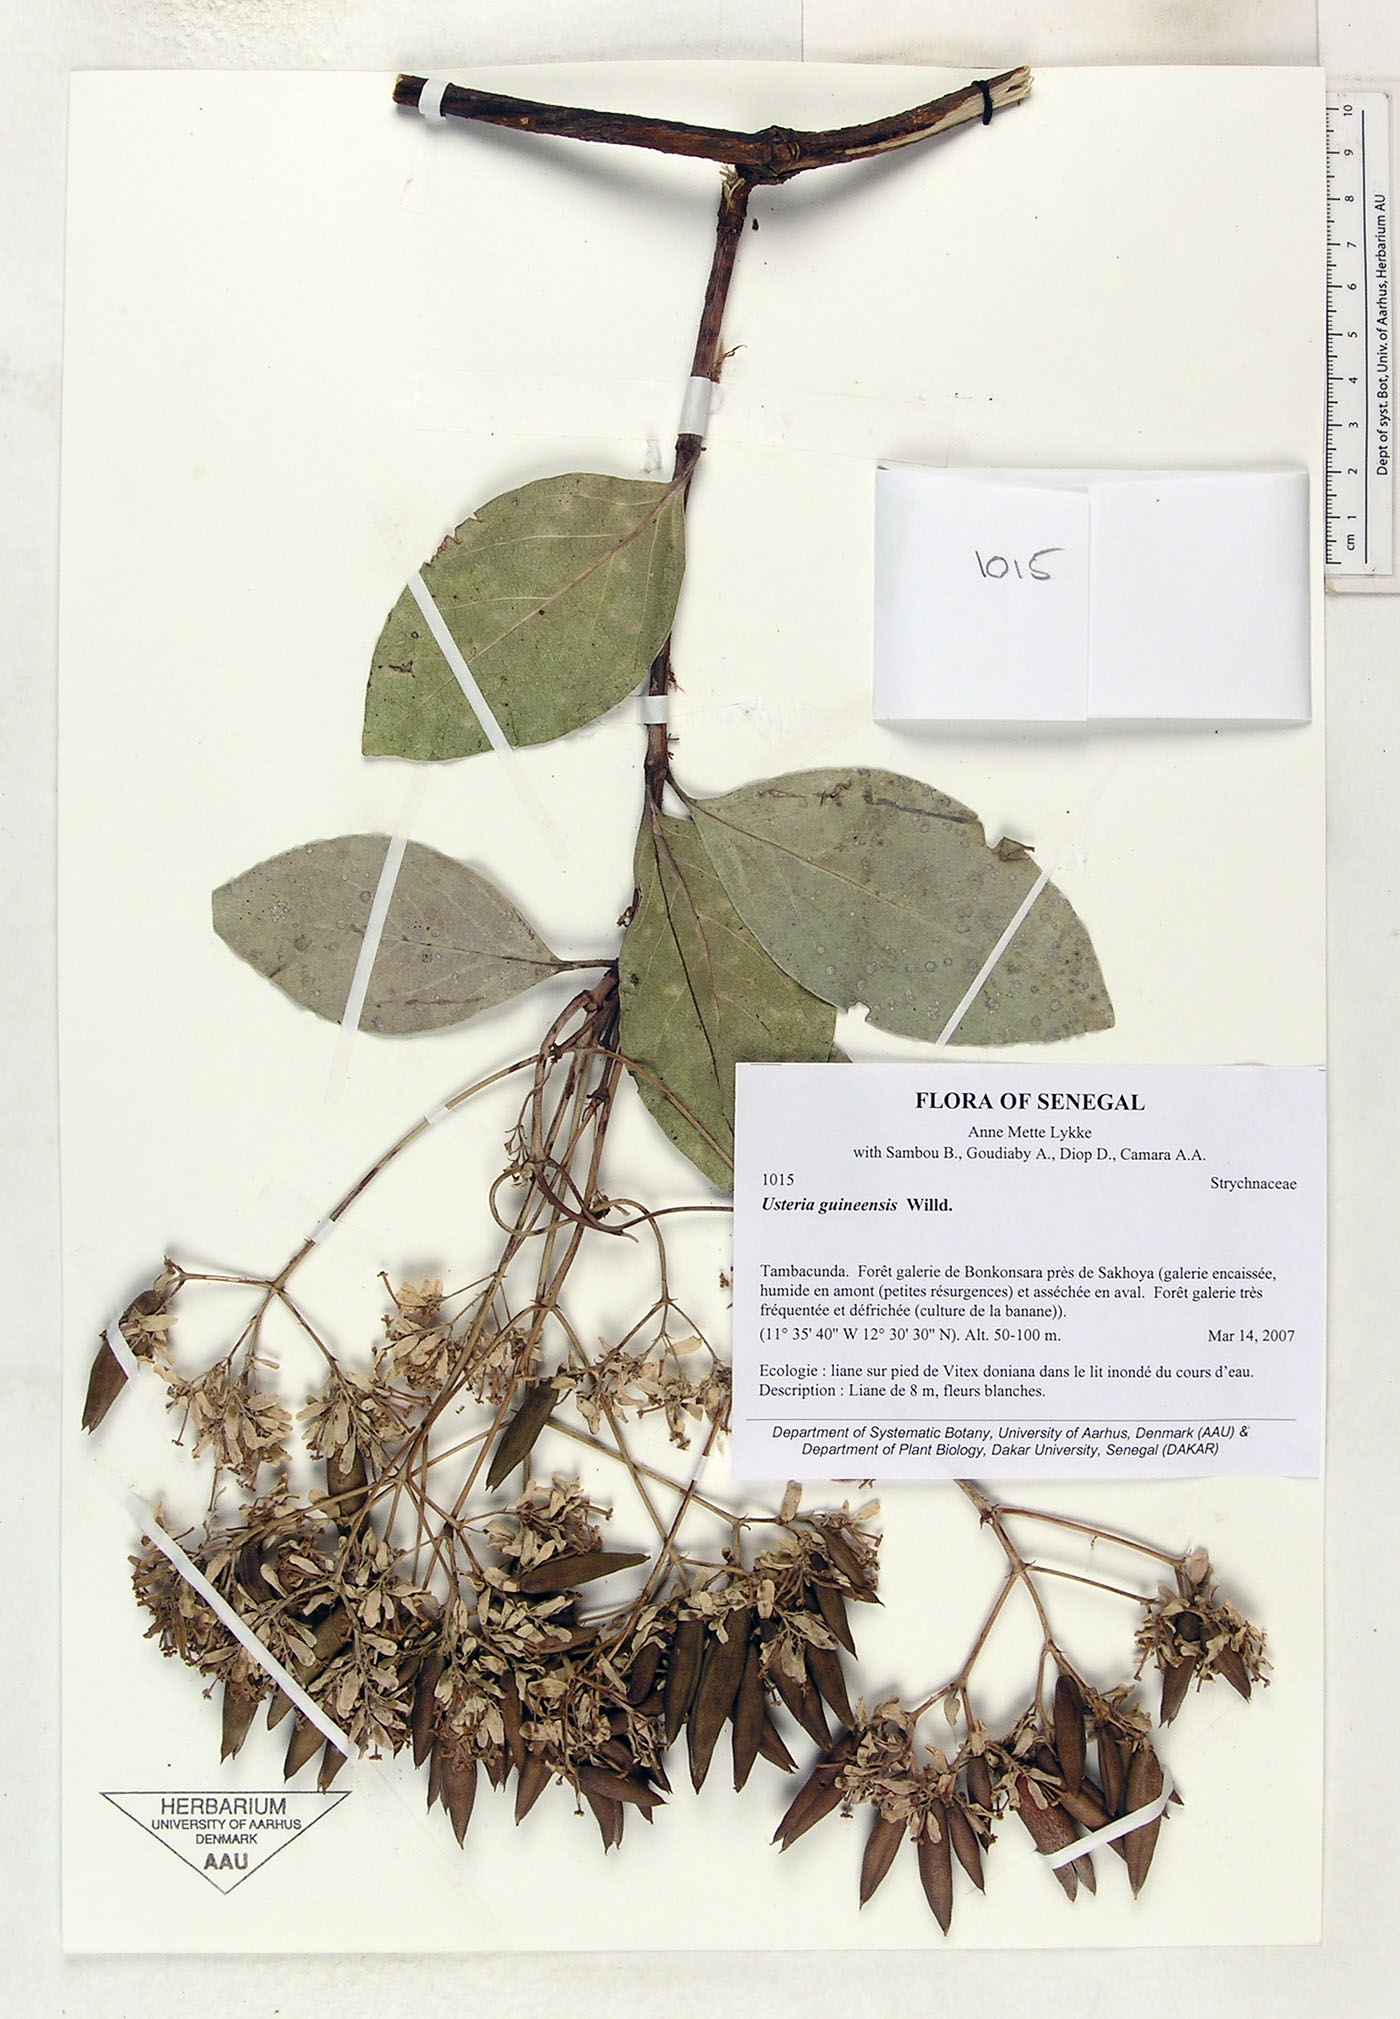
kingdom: Plantae
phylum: Tracheophyta
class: Magnoliopsida
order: Gentianales
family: Loganiaceae
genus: Usteria
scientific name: Usteria guineensis
